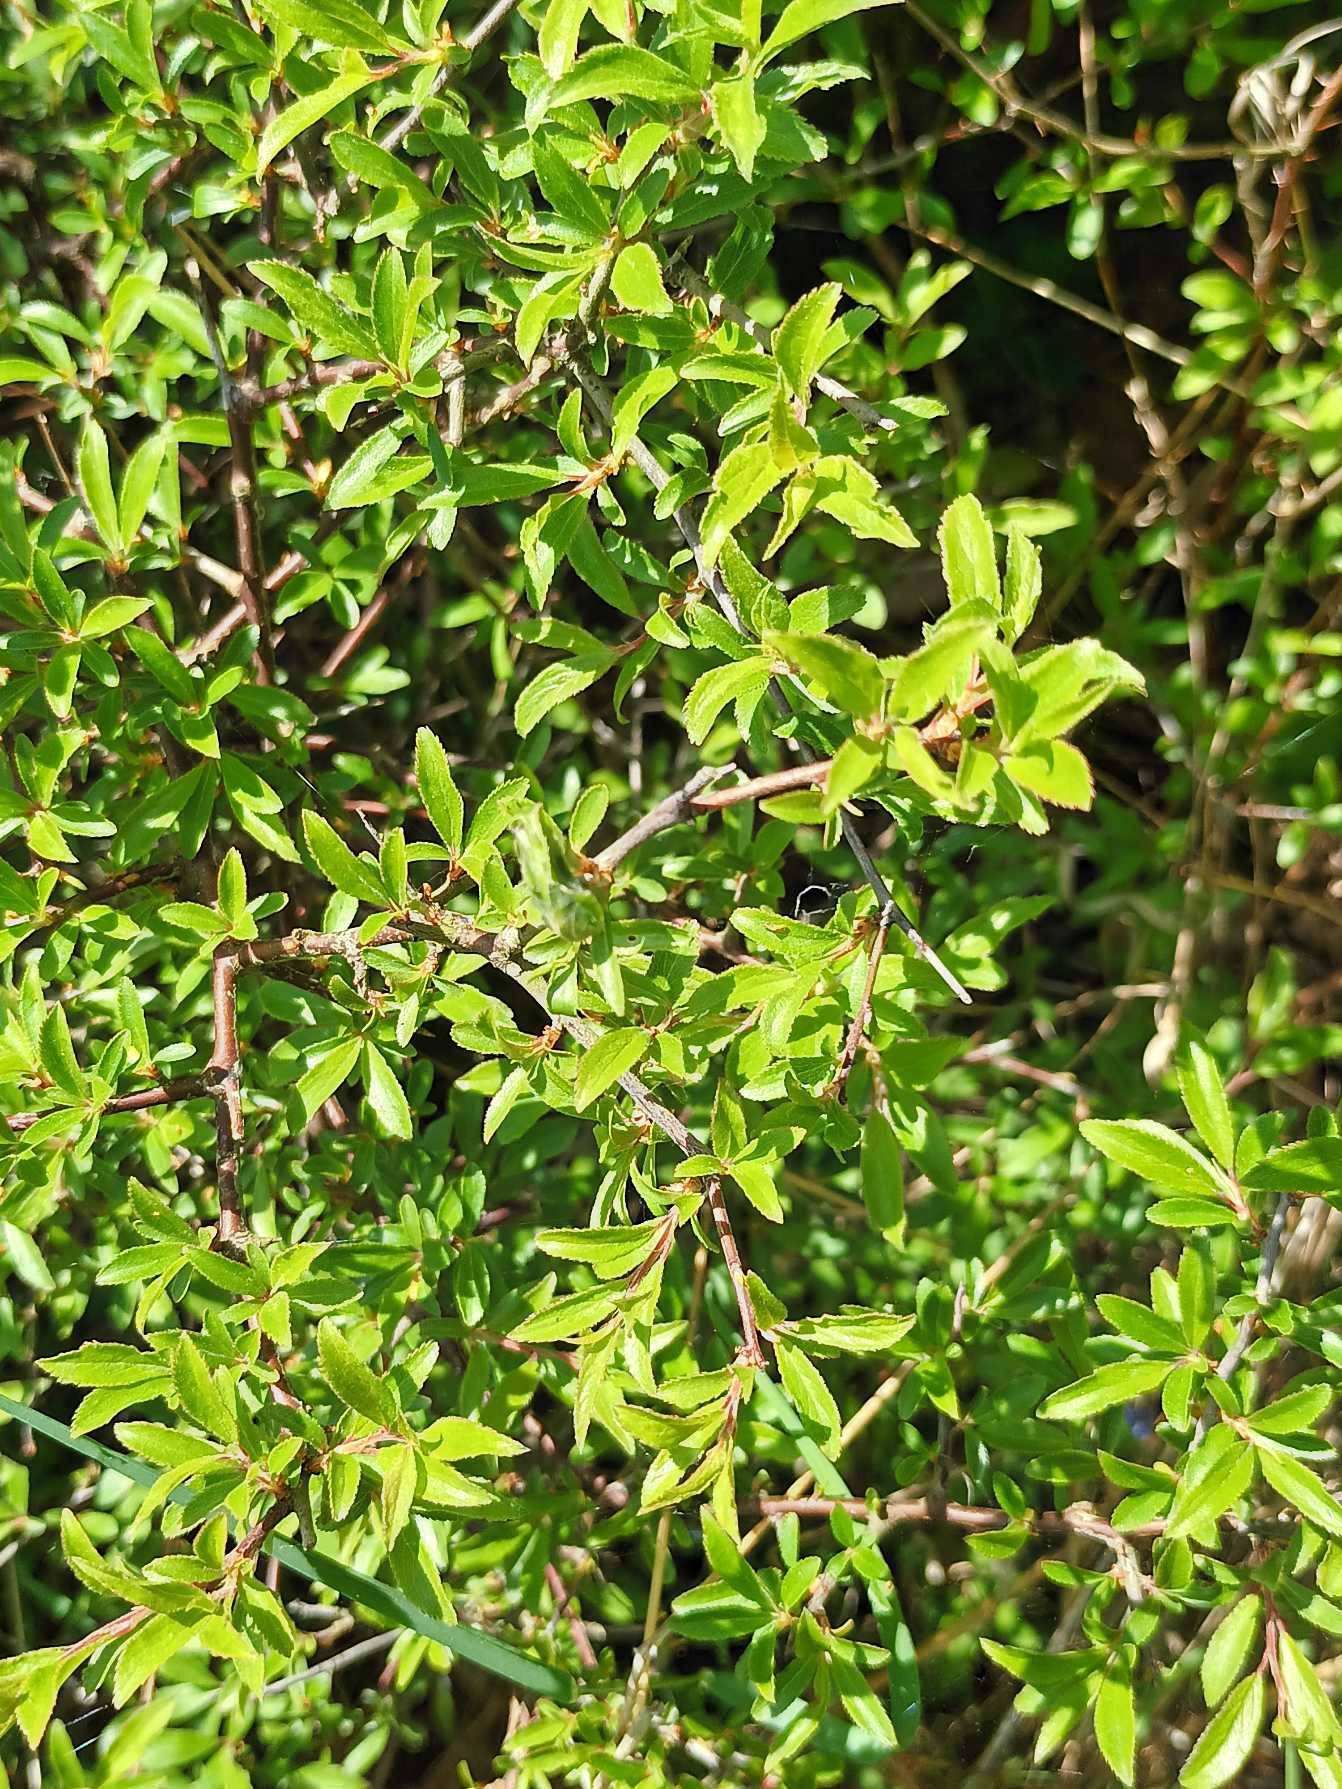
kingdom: Plantae
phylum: Tracheophyta
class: Magnoliopsida
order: Rosales
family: Rosaceae
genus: Prunus
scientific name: Prunus spinosa
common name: Slåen
